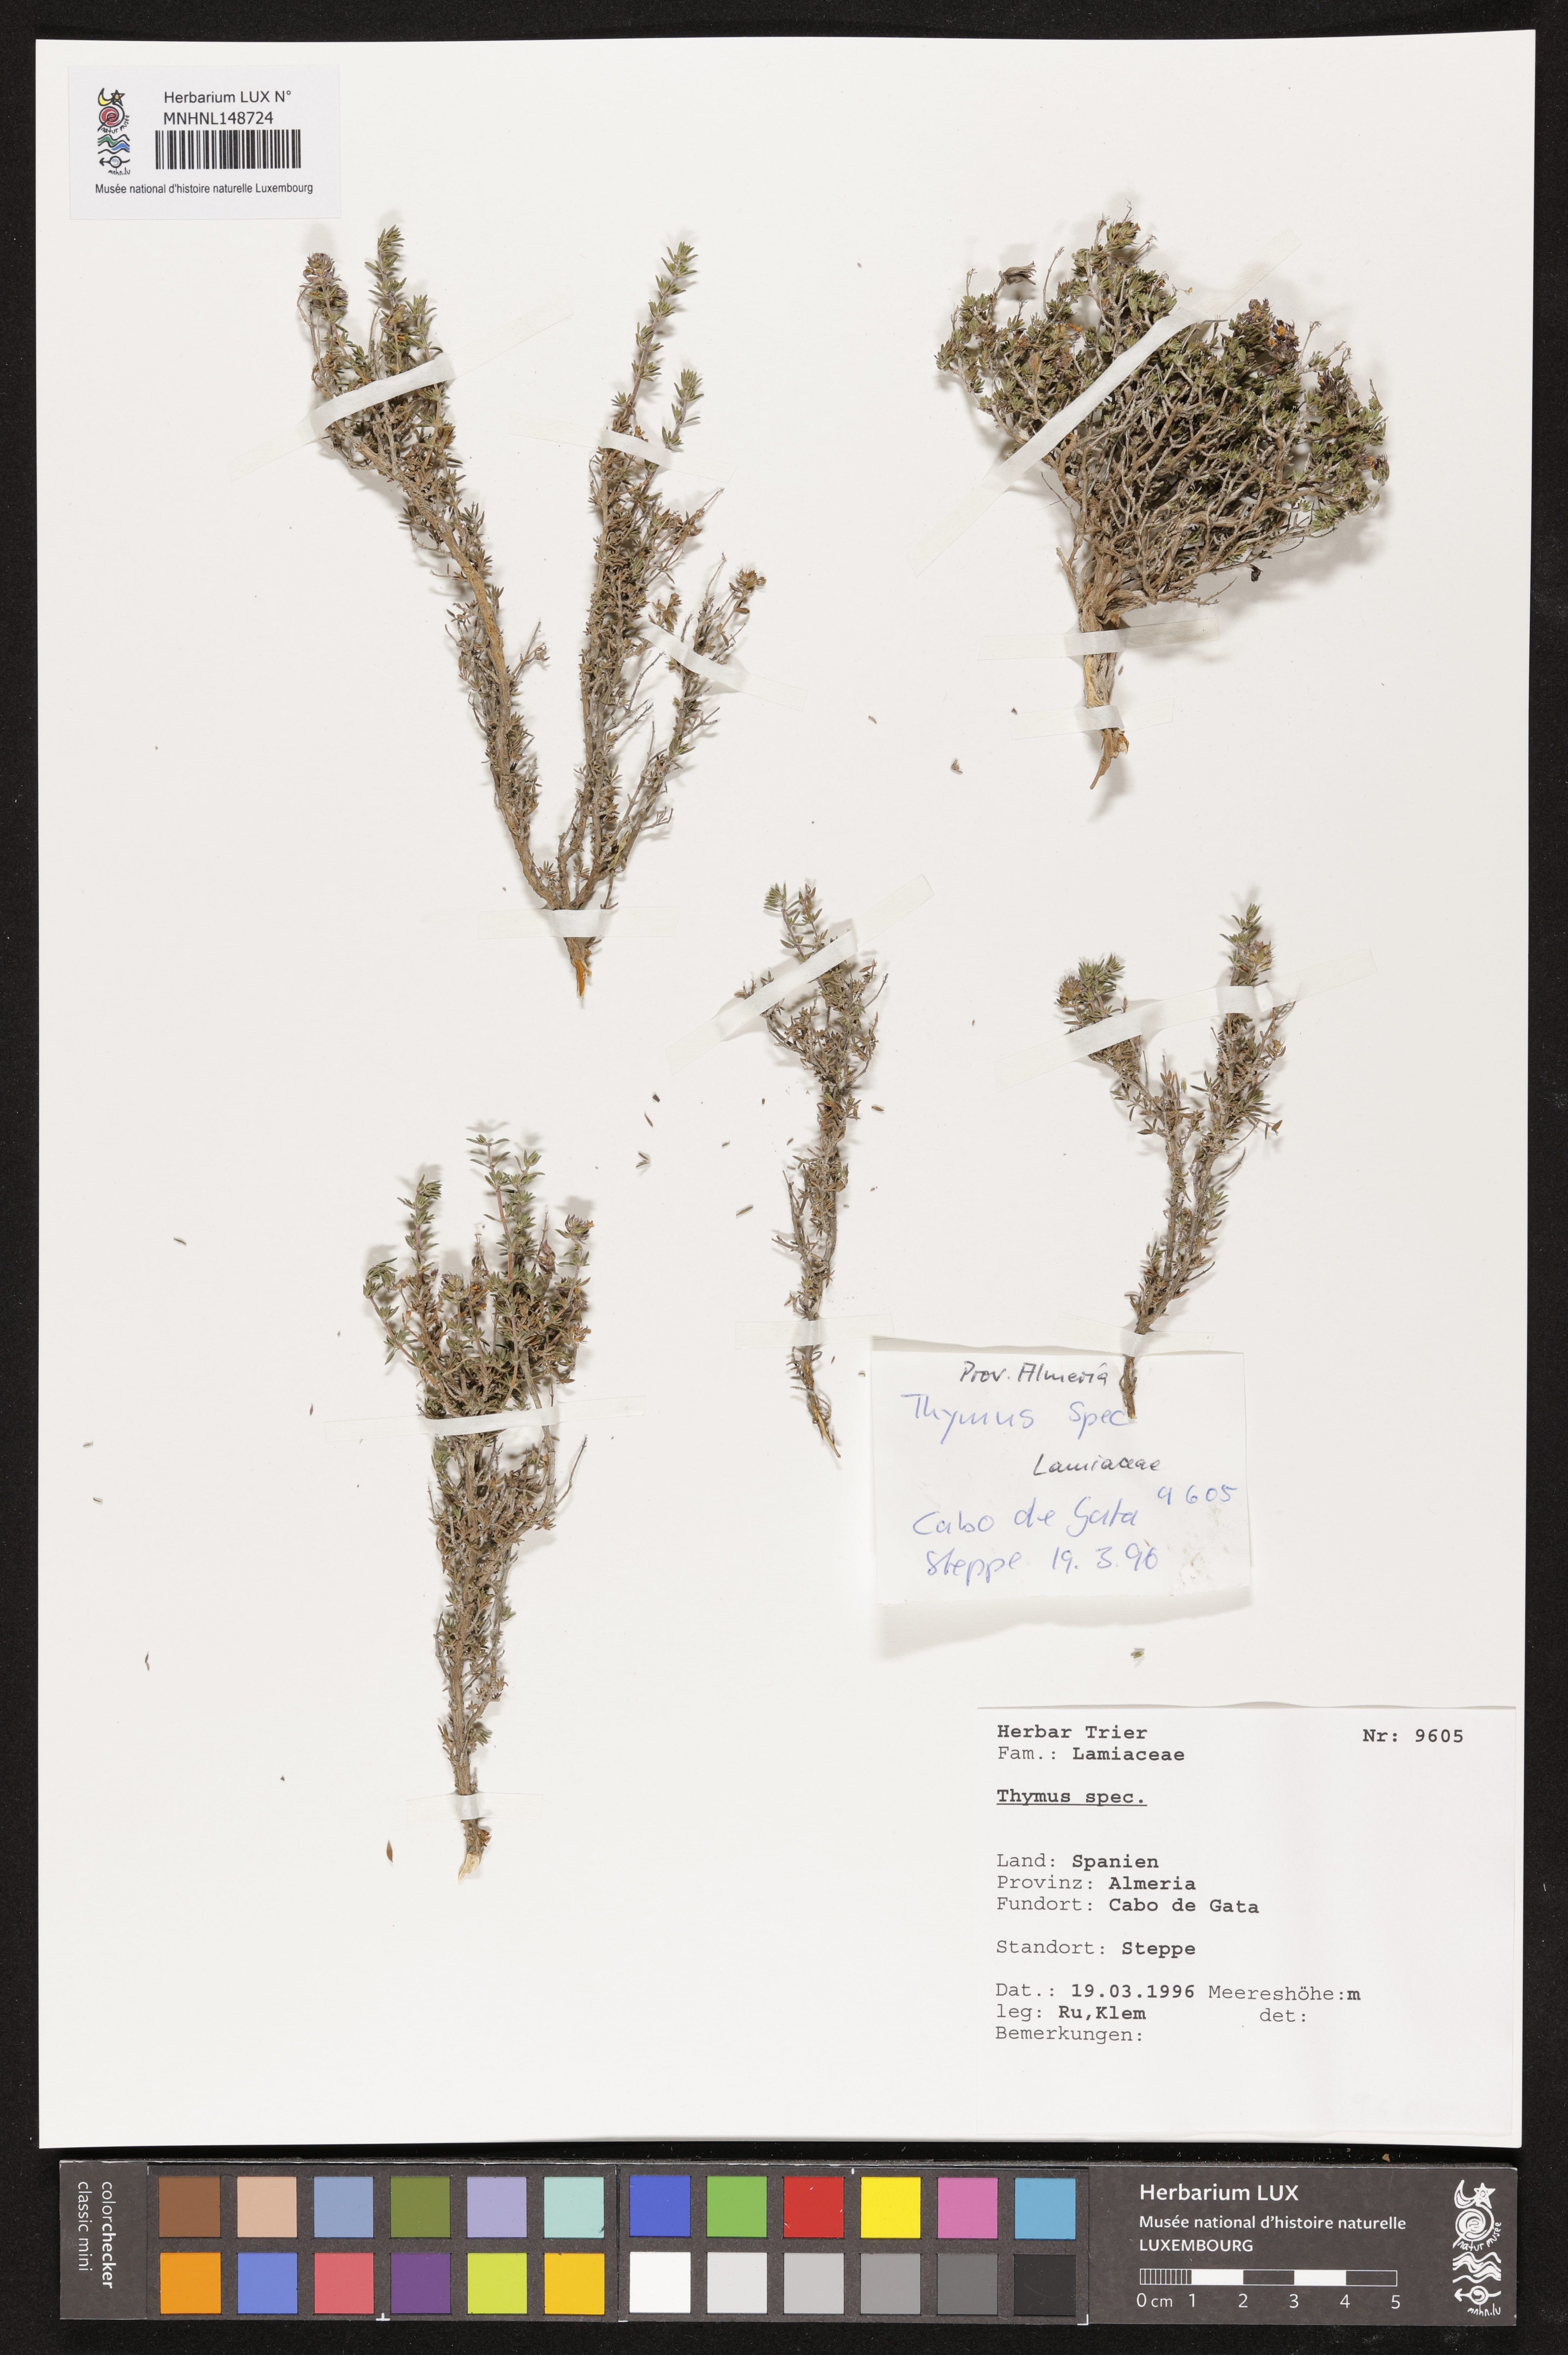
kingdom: Plantae
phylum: Tracheophyta
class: Magnoliopsida
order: Lamiales
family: Lamiaceae
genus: Thymus
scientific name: Thymus
